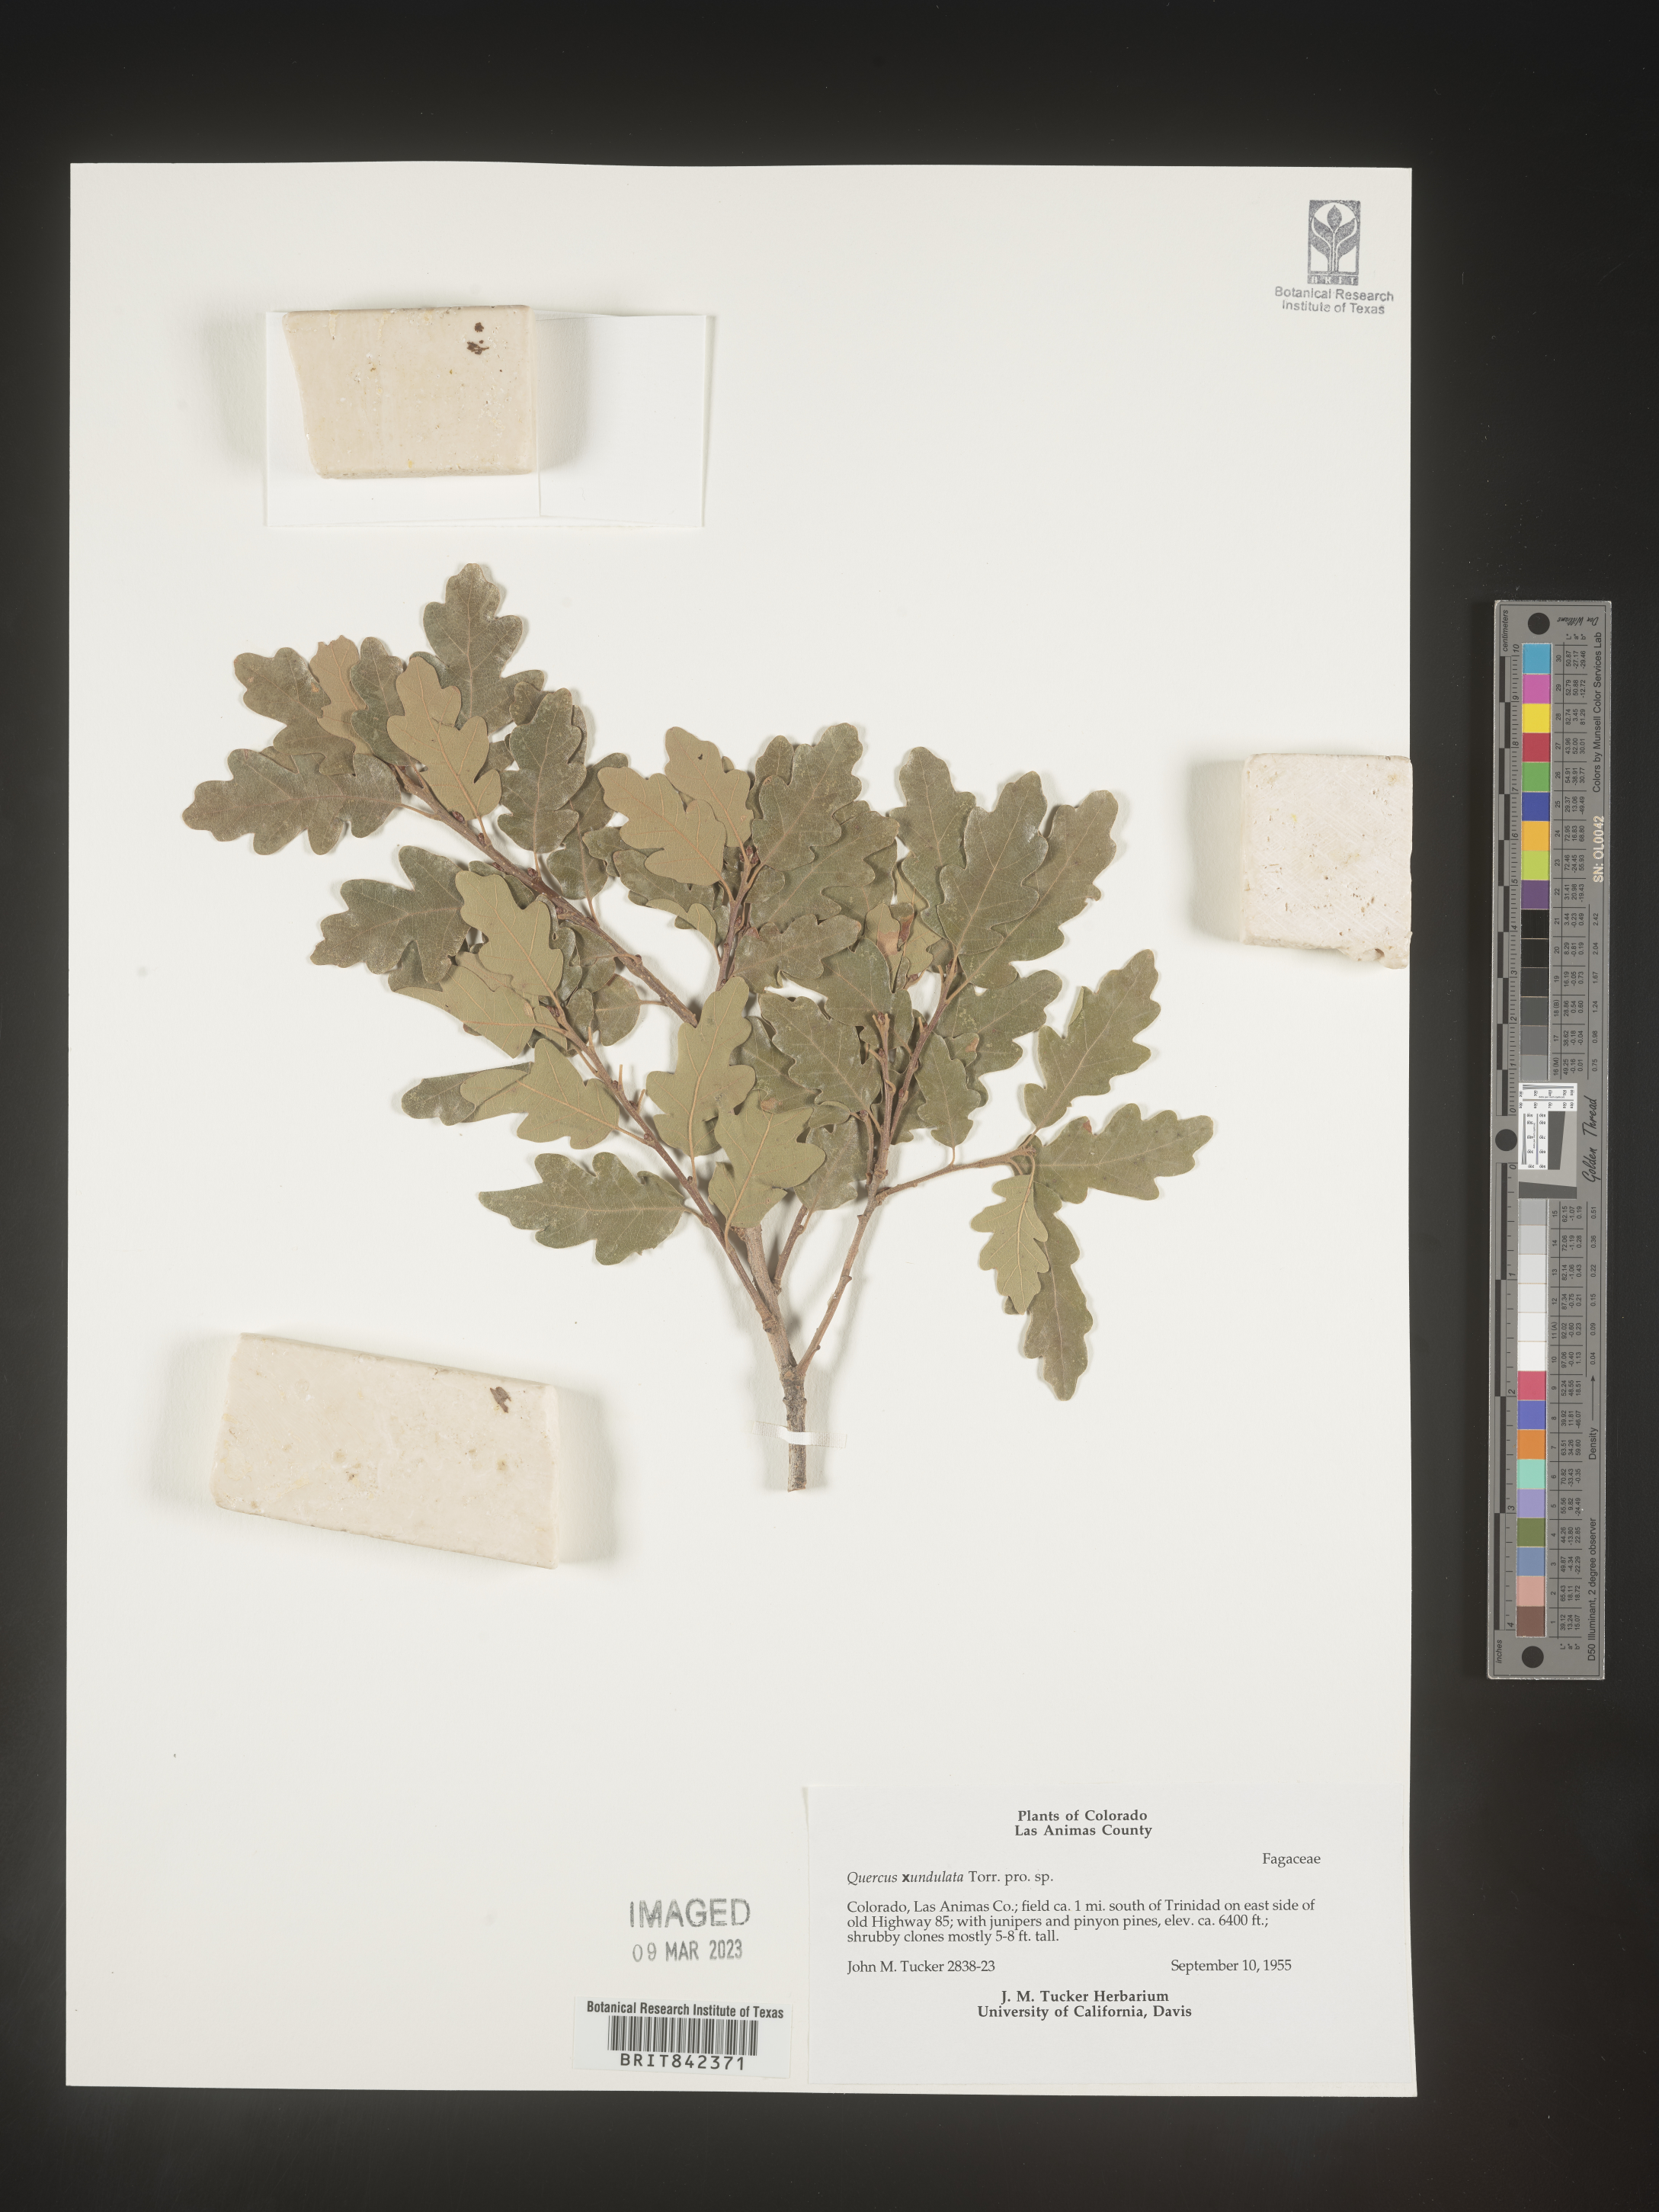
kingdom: Plantae
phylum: Tracheophyta
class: Magnoliopsida
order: Fagales
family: Fagaceae
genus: Quercus
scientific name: Quercus undulata
